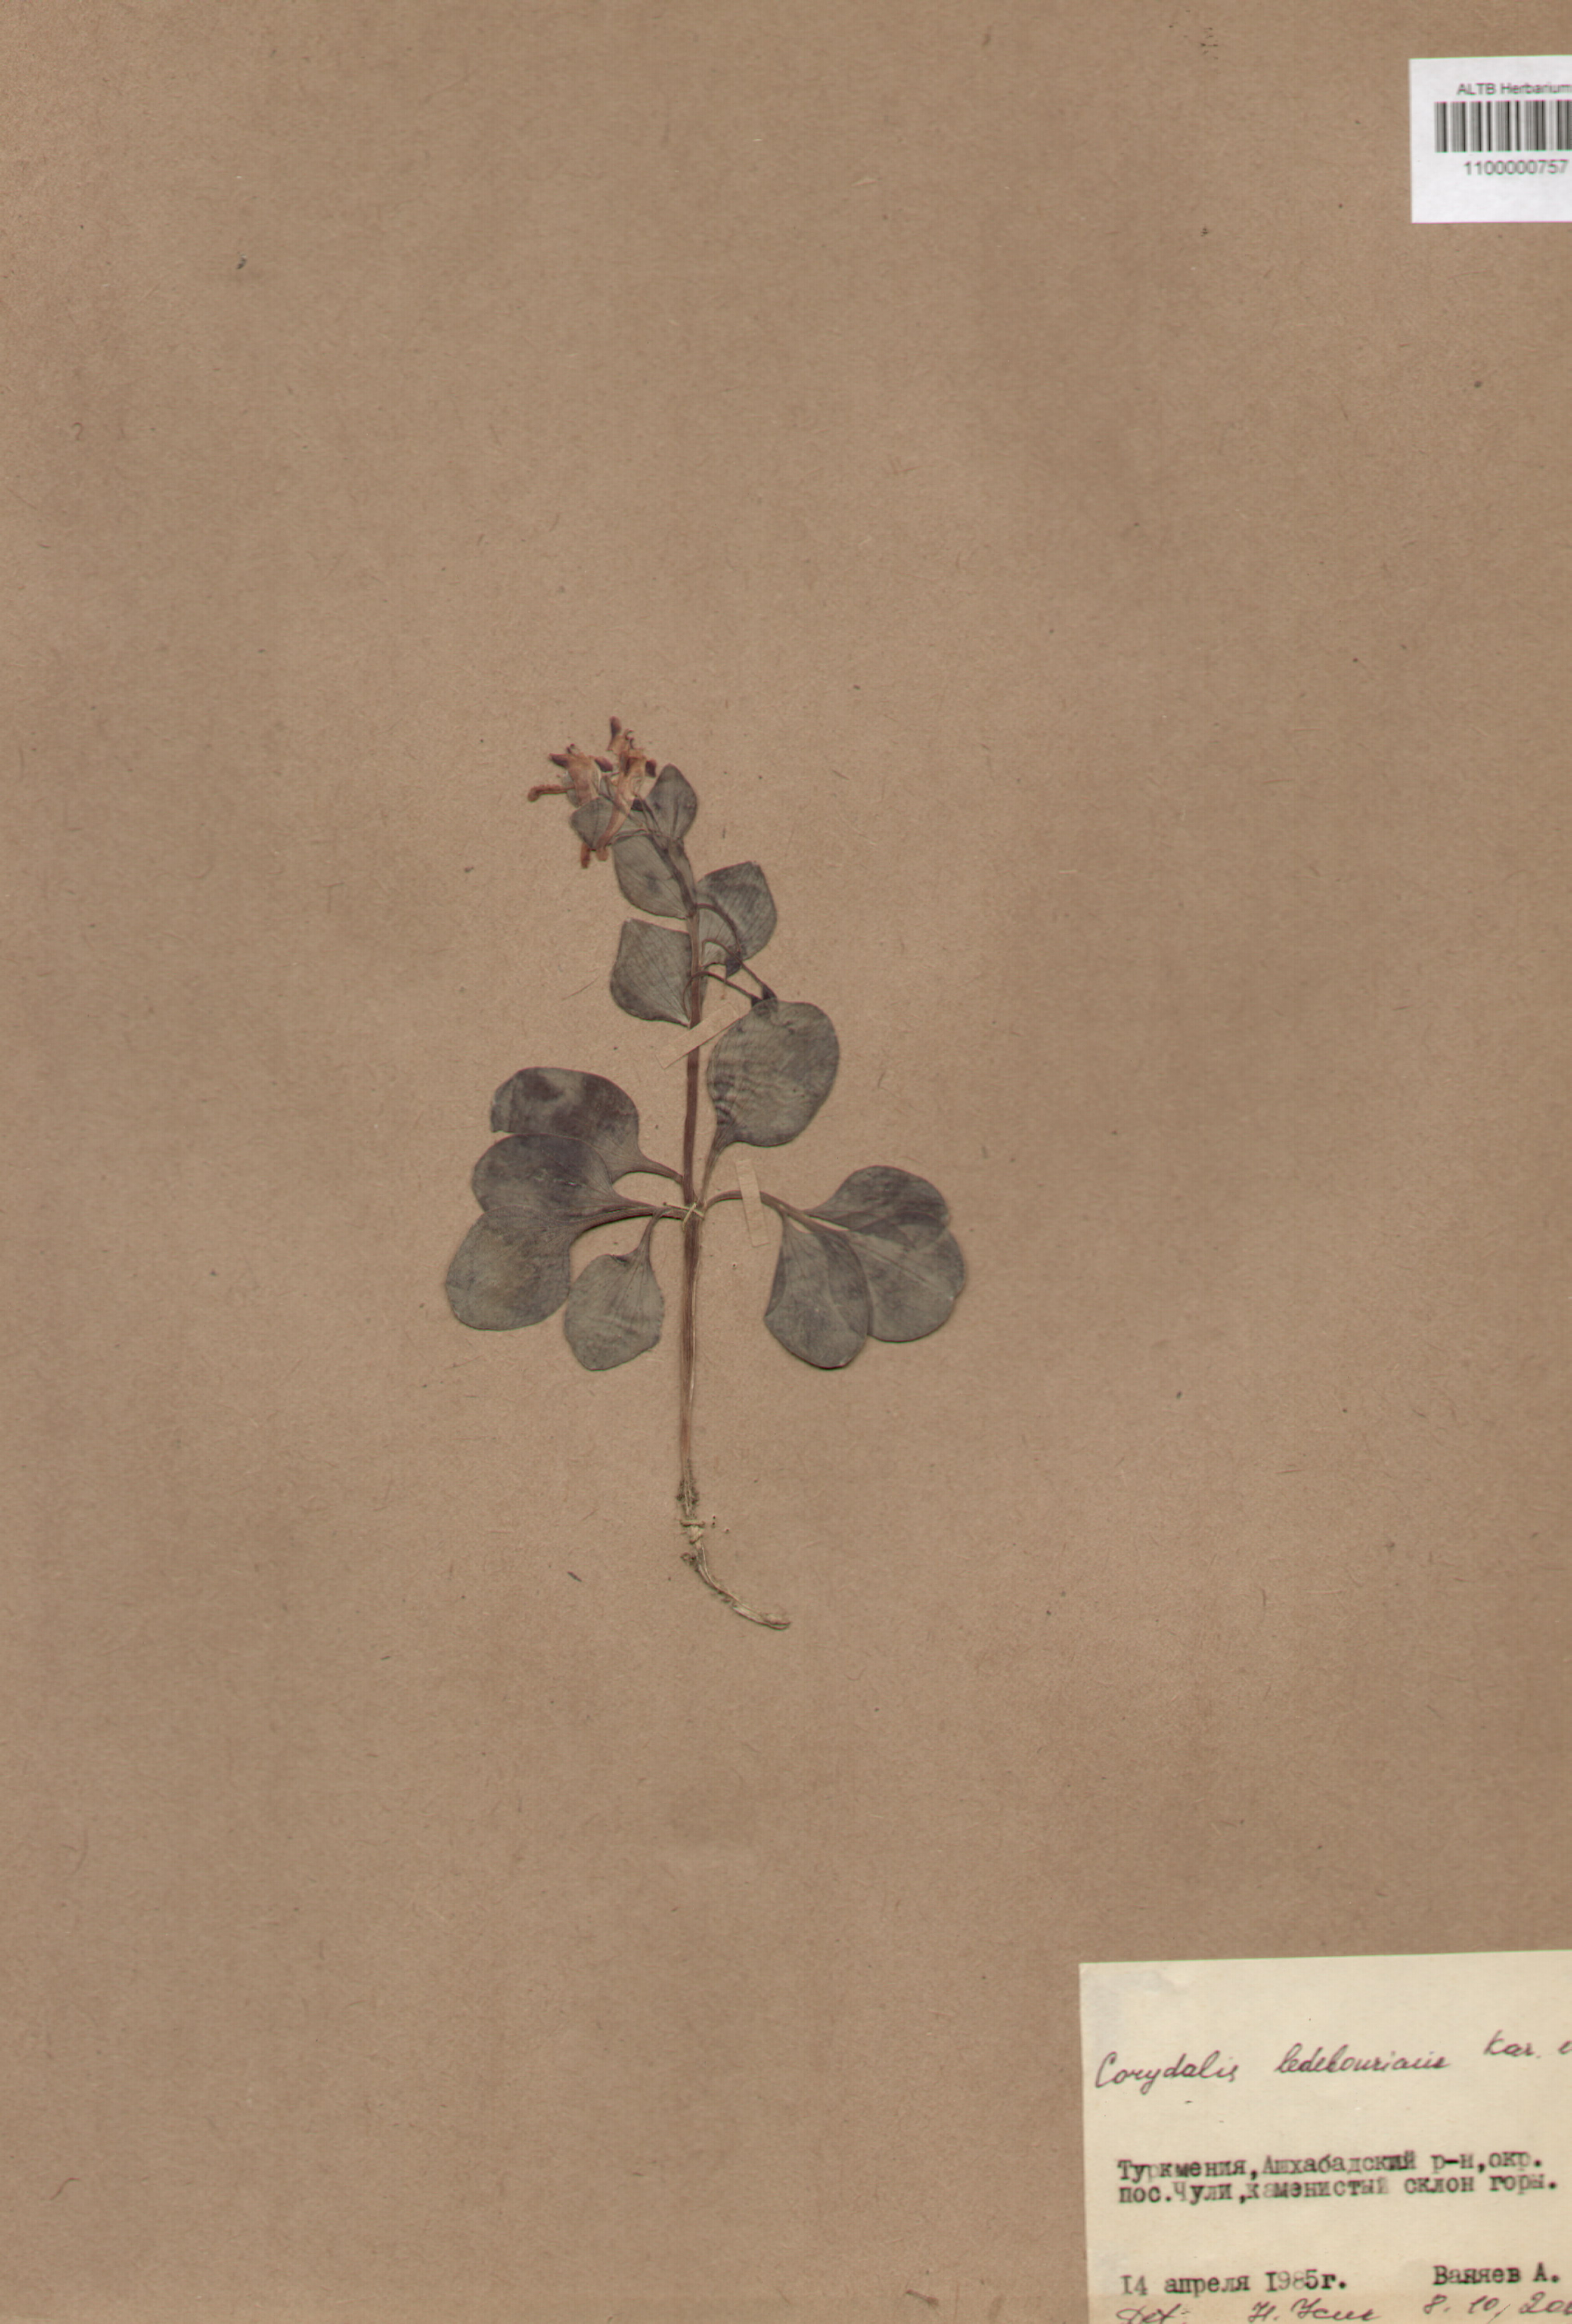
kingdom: Plantae
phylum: Tracheophyta
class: Magnoliopsida
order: Ranunculales
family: Papaveraceae
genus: Corydalis
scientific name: Corydalis ledebouriana
